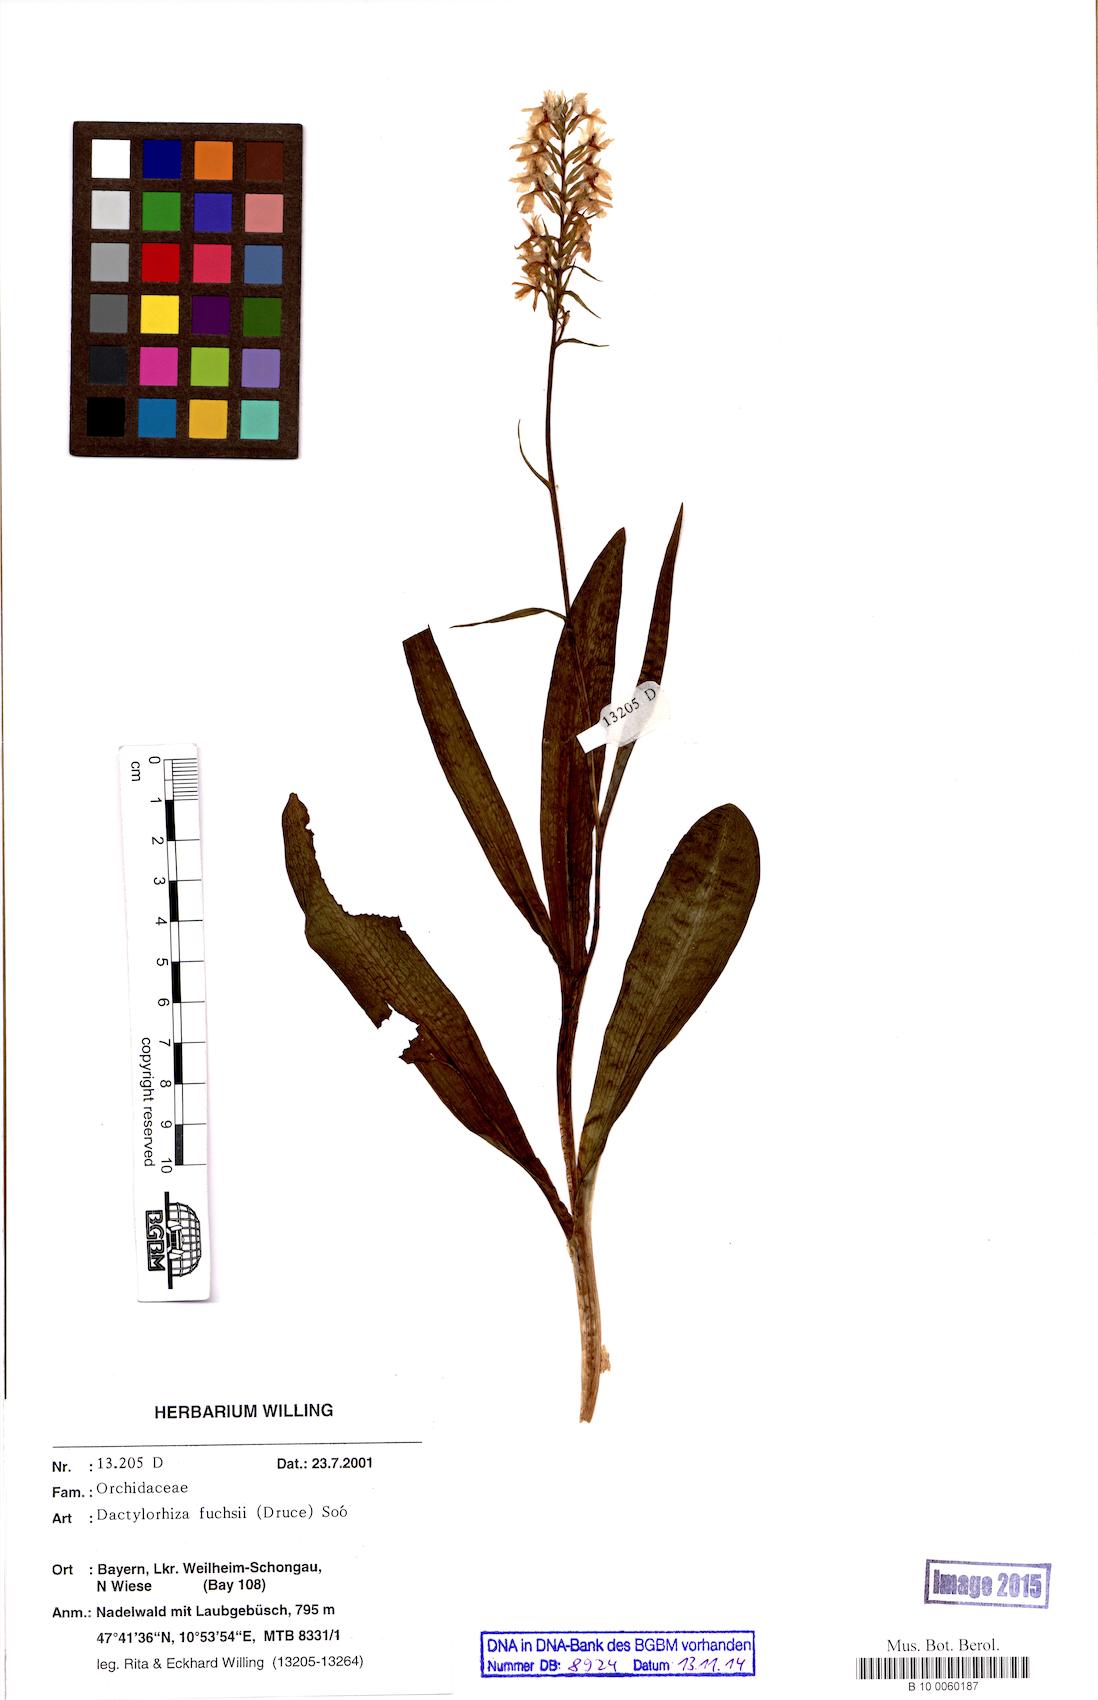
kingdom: Plantae
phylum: Tracheophyta
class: Liliopsida
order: Asparagales
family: Orchidaceae
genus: Dactylorhiza
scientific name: Dactylorhiza maculata
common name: Heath spotted-orchid
